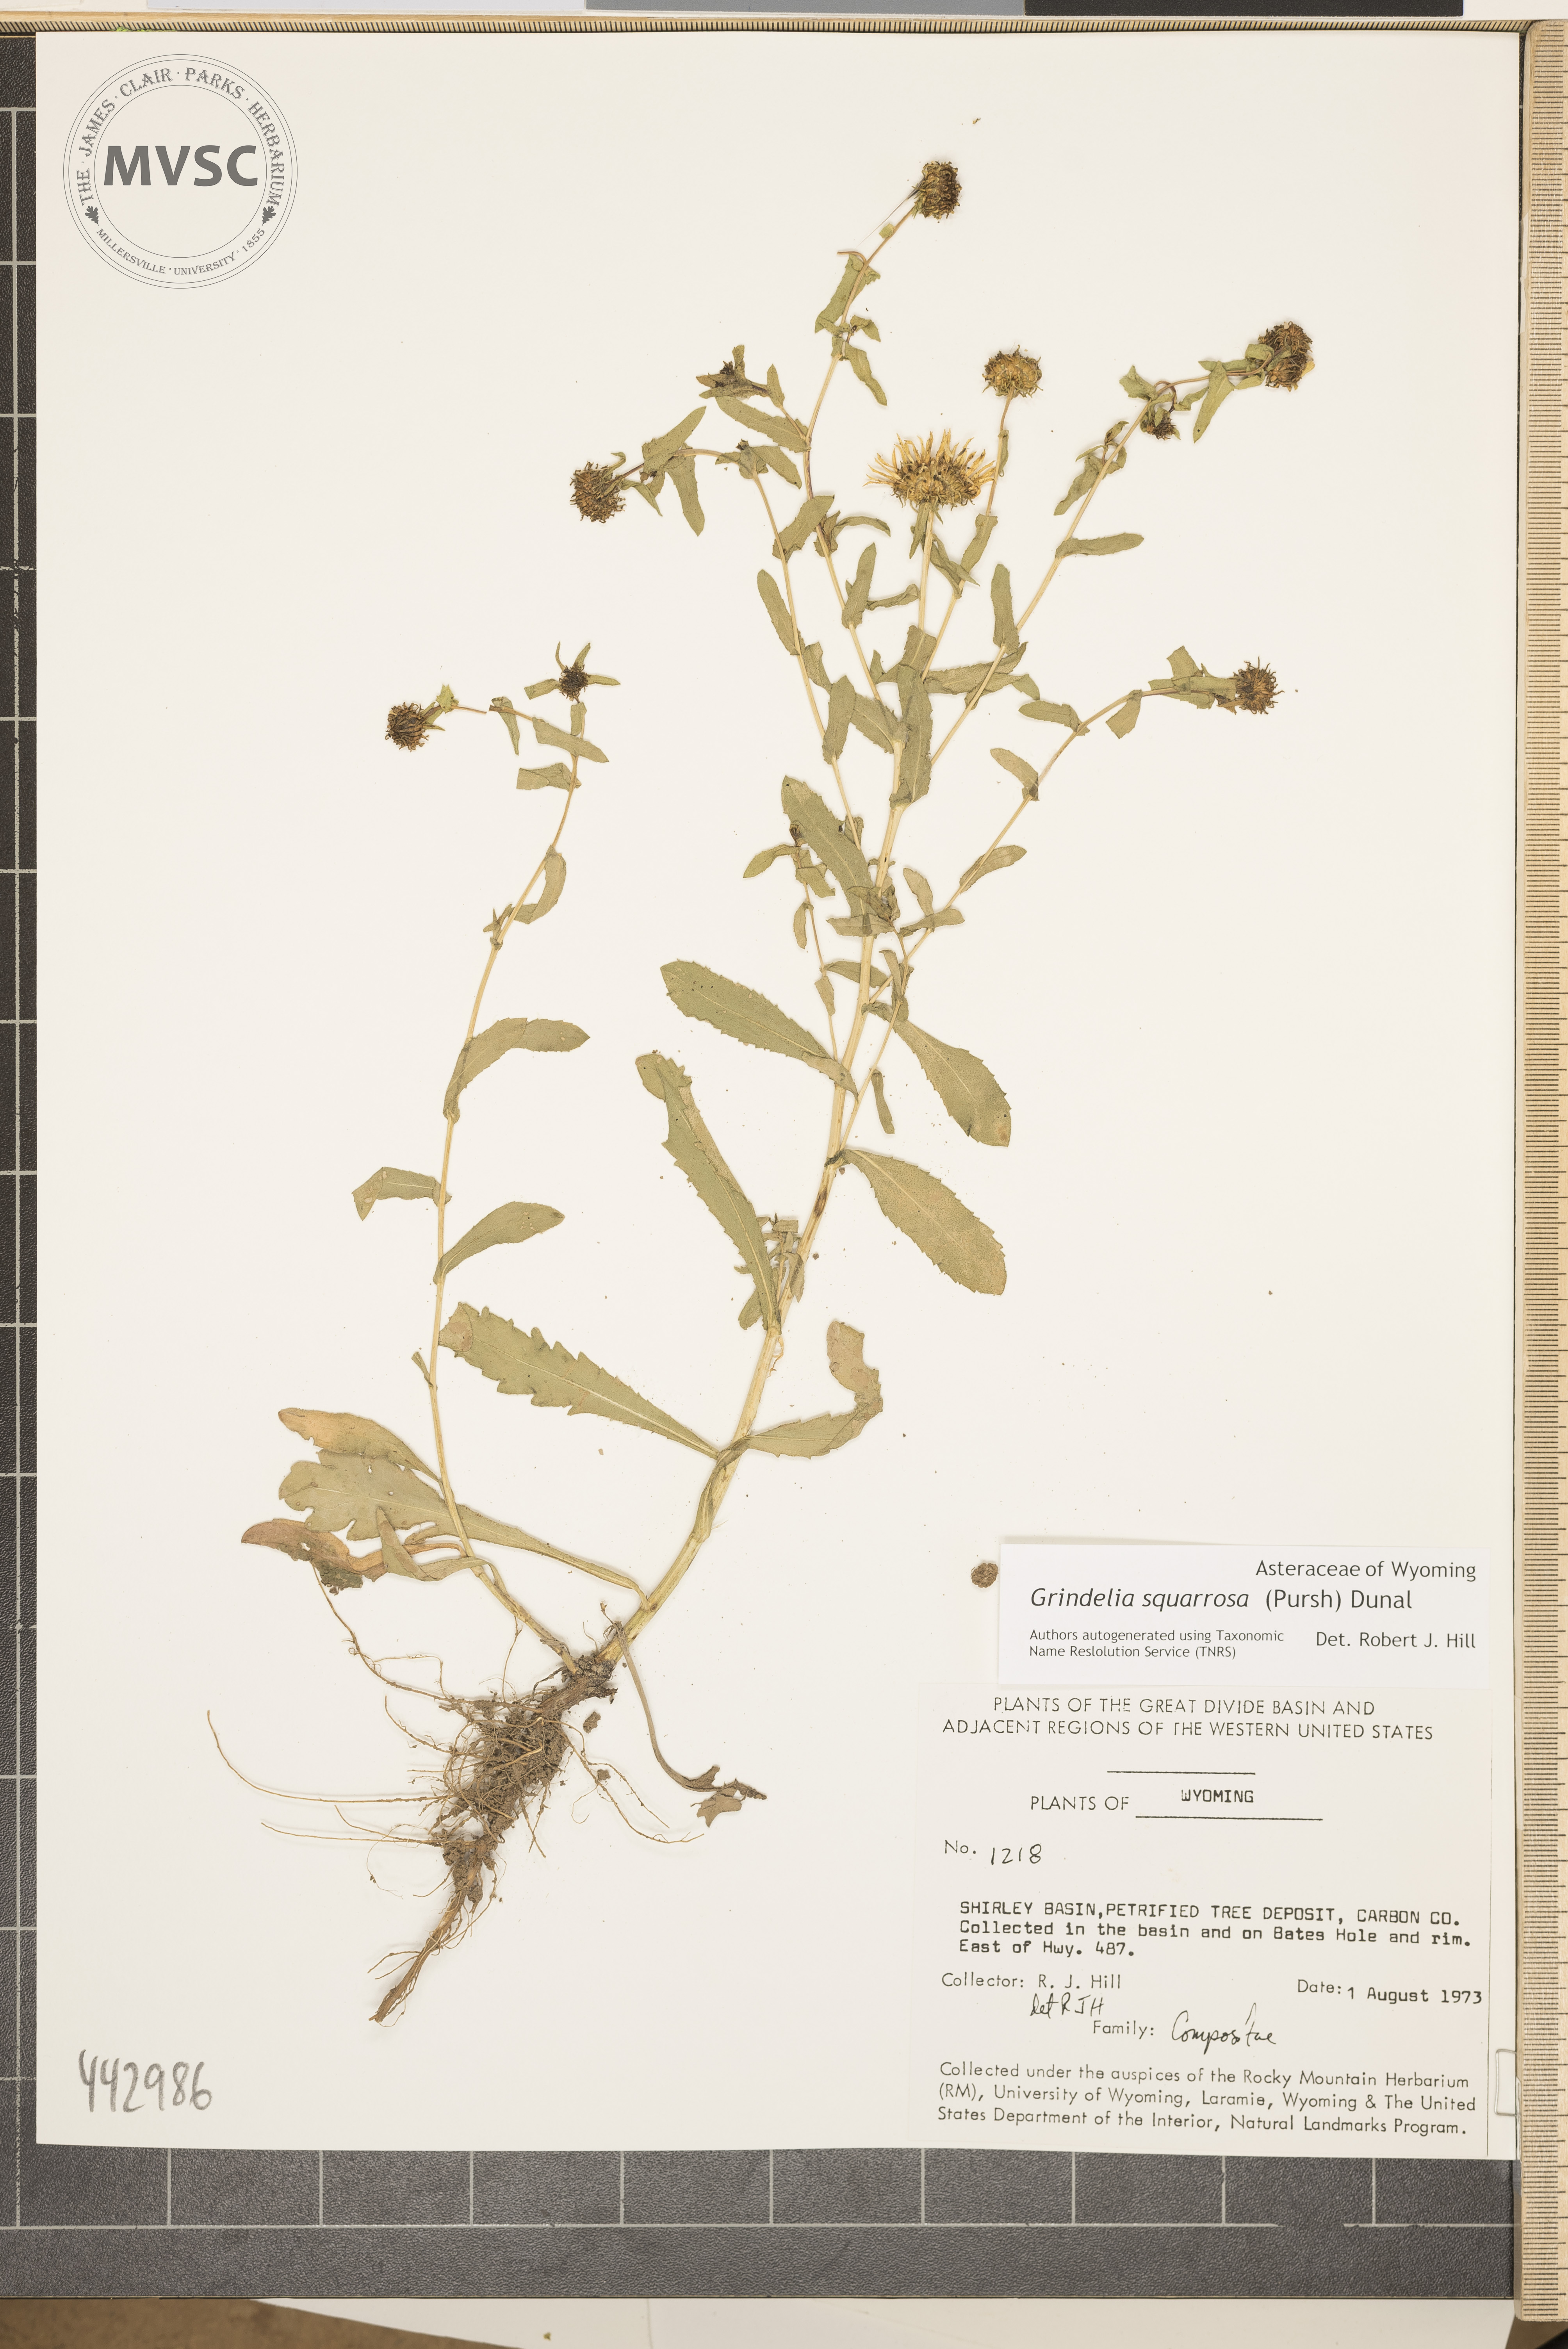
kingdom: Plantae
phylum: Tracheophyta
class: Magnoliopsida
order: Asterales
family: Asteraceae
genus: Grindelia
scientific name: Grindelia squarrosa
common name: Curly-cup gumweed
